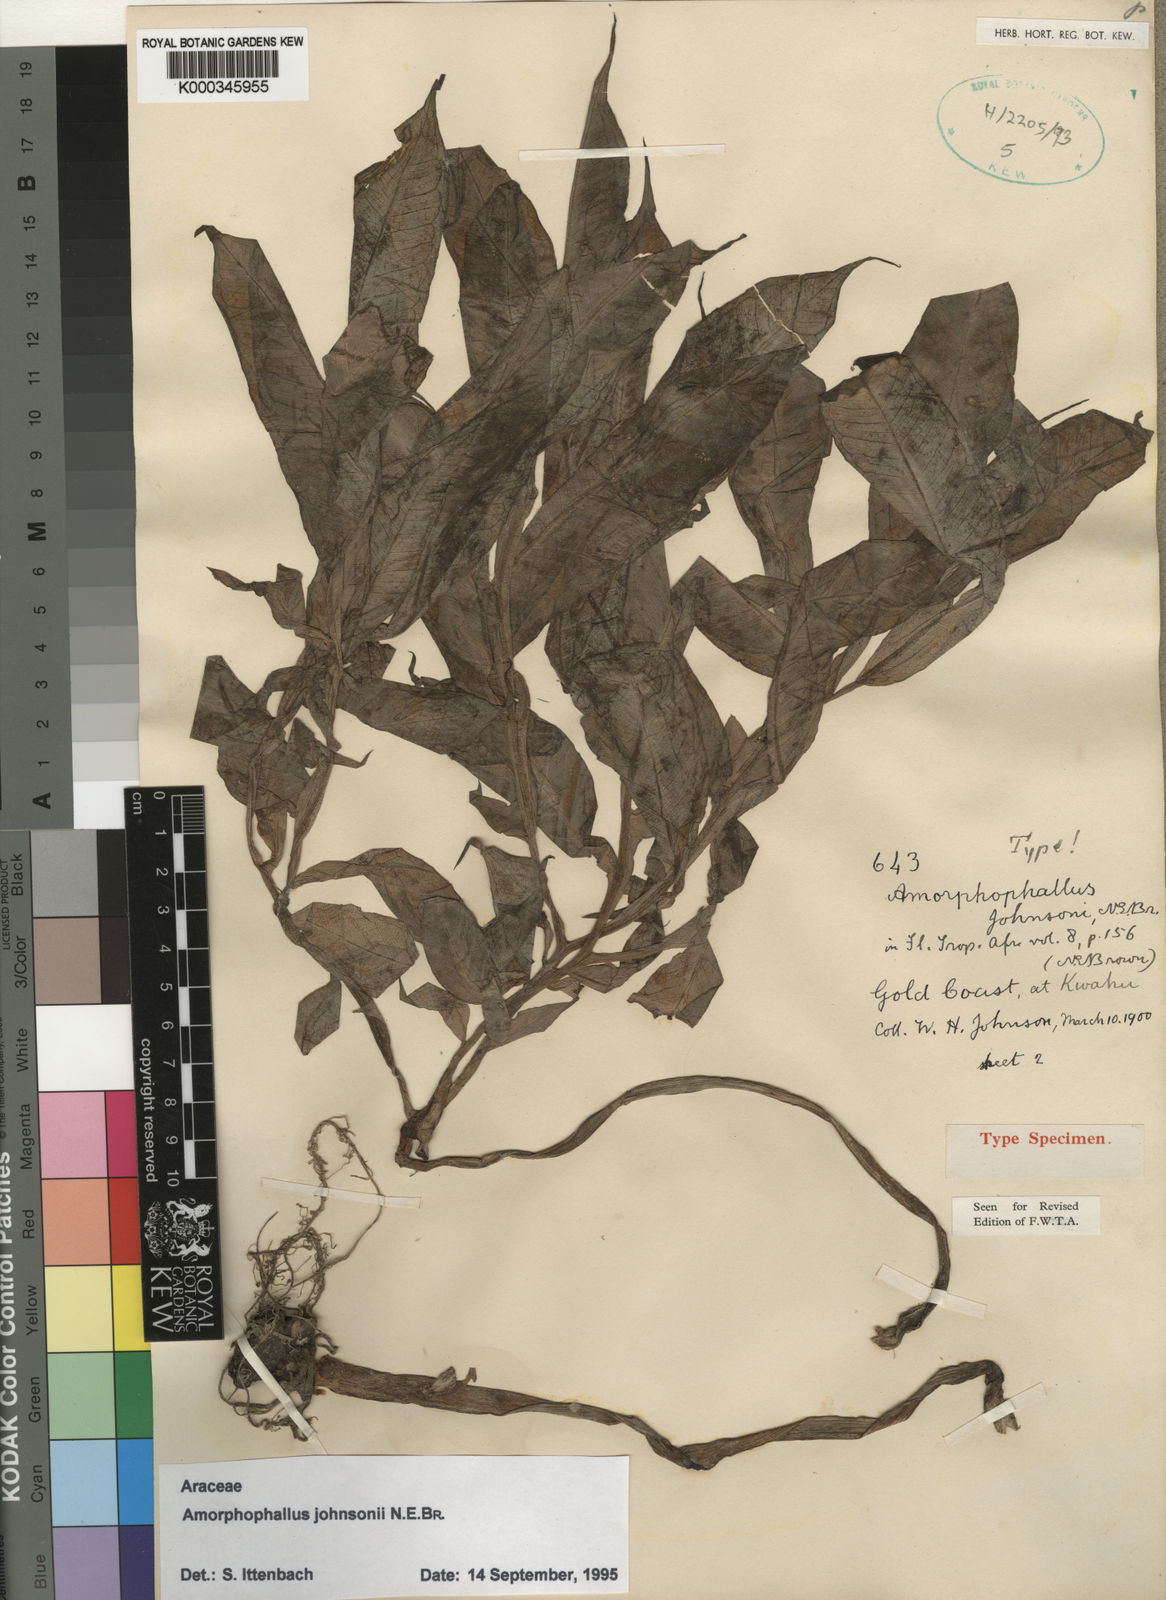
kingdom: Plantae
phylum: Tracheophyta
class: Liliopsida
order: Alismatales
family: Araceae
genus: Amorphophallus
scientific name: Amorphophallus johnsonii
